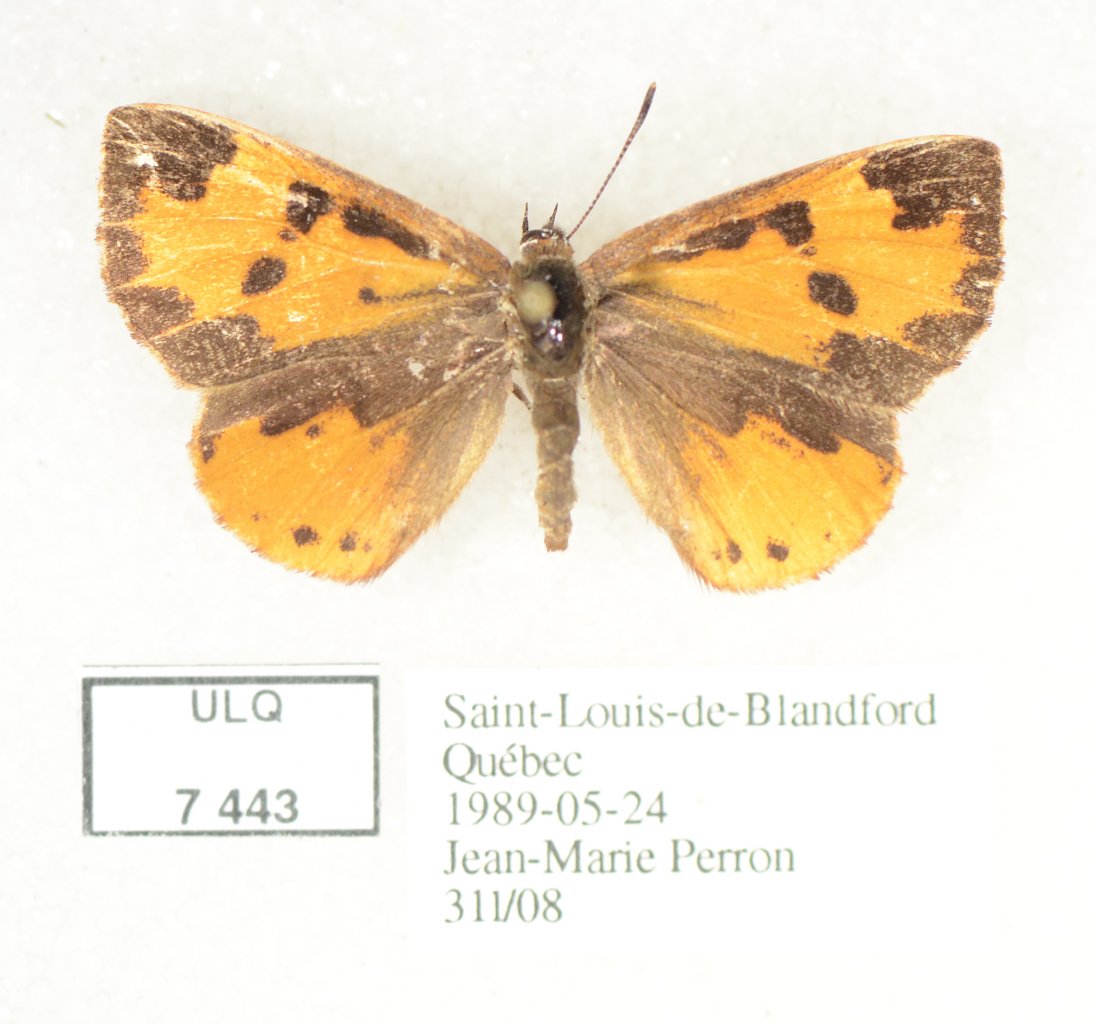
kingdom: Animalia
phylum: Arthropoda
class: Insecta
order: Lepidoptera
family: Lycaenidae
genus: Feniseca
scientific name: Feniseca tarquinius
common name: Harvester
